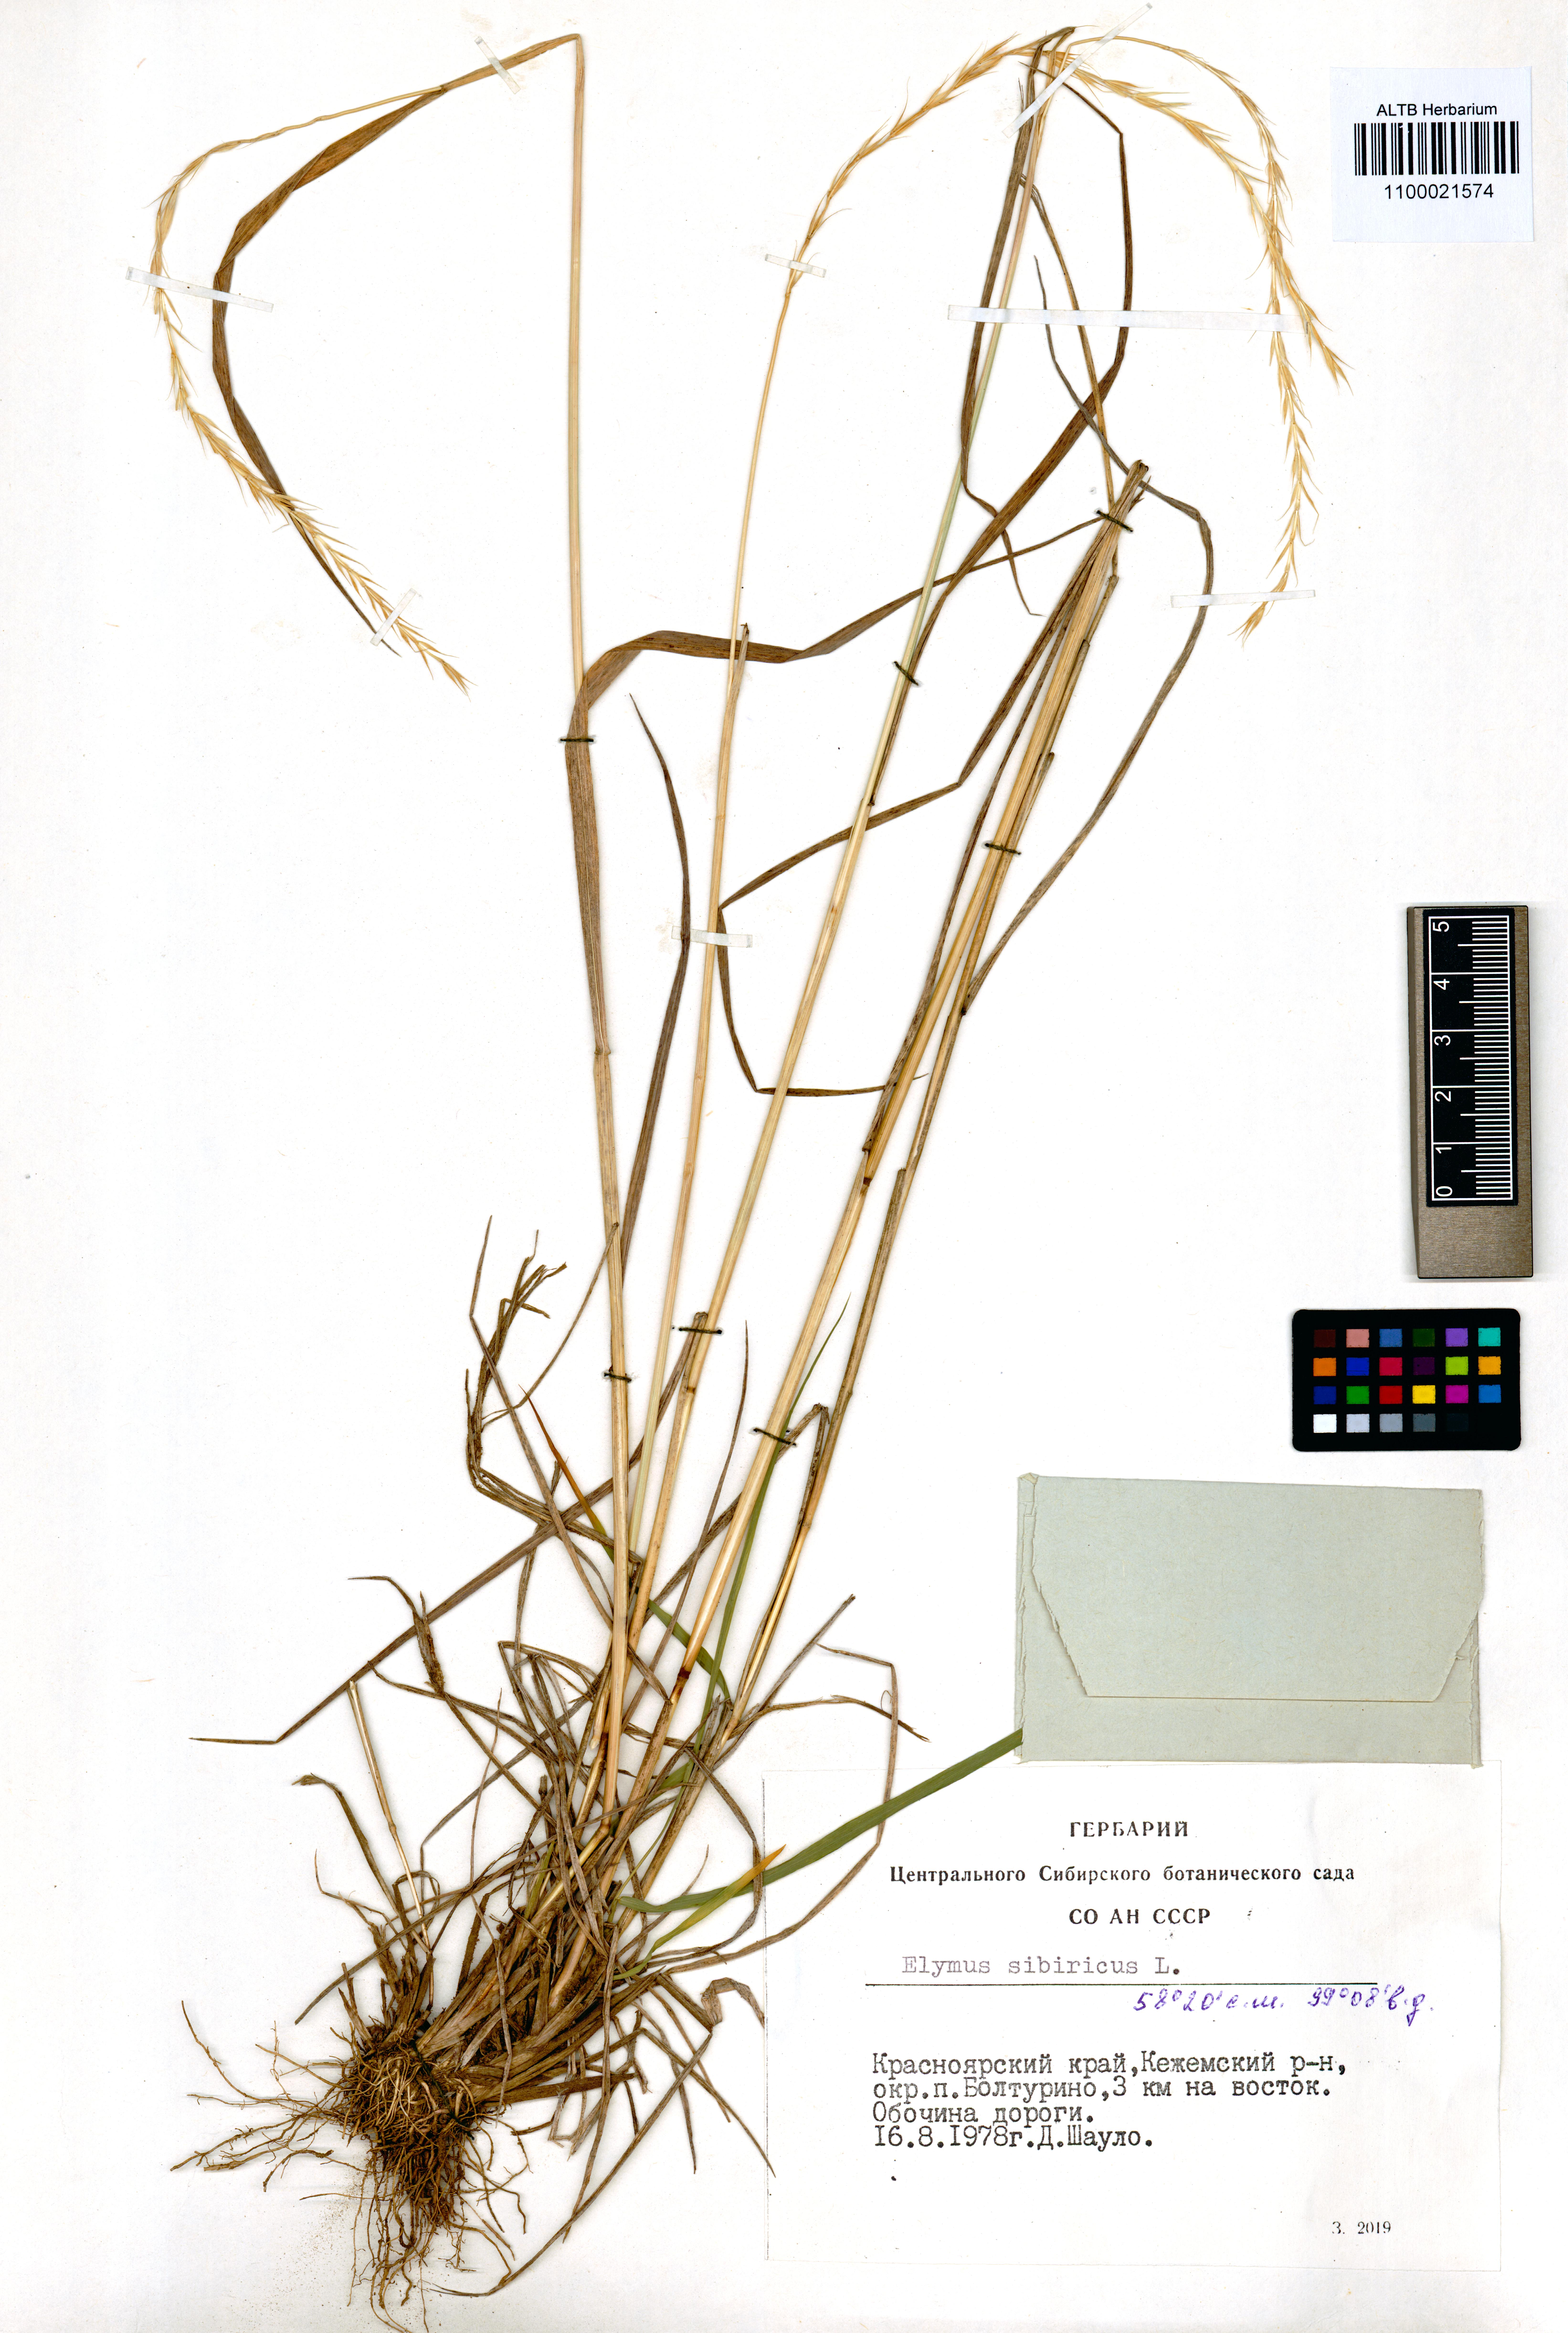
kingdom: Plantae
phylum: Tracheophyta
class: Liliopsida
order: Poales
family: Poaceae
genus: Elymus
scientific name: Elymus sibiricus
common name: Siberian wildrye
